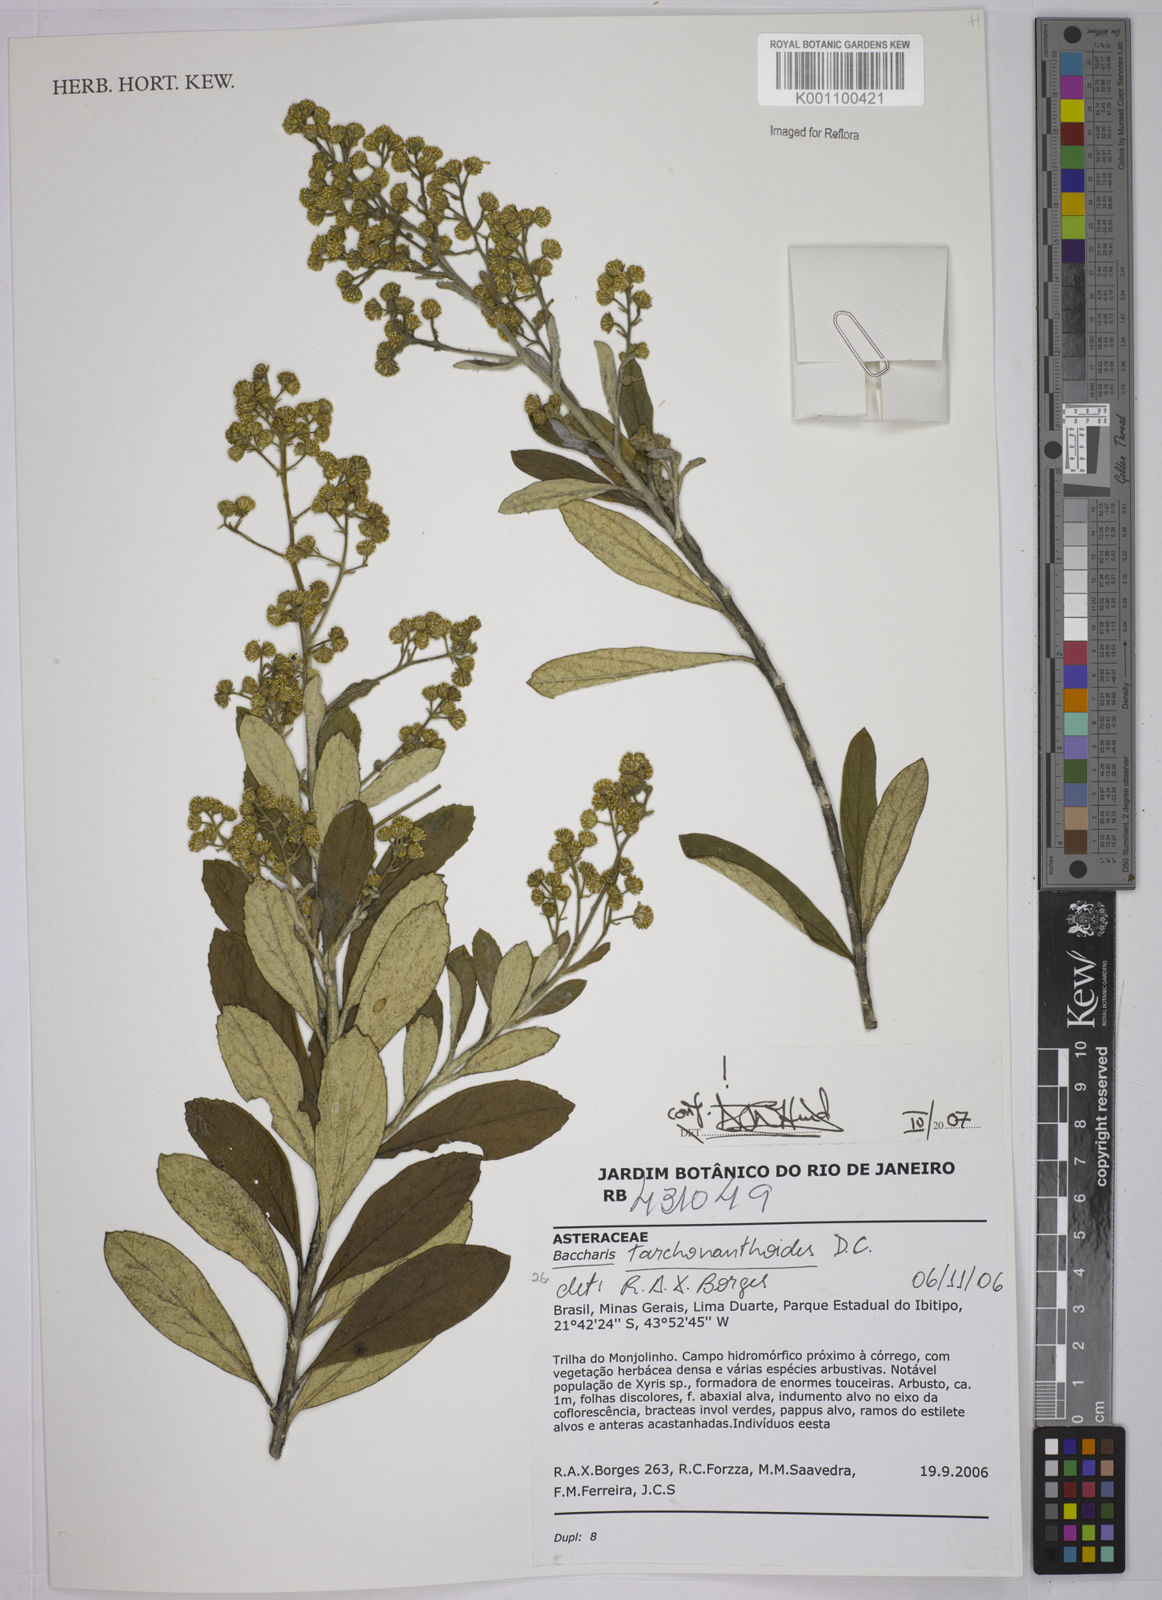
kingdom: Plantae
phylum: Tracheophyta
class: Magnoliopsida
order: Asterales
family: Asteraceae
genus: Baccharis
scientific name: Baccharis
